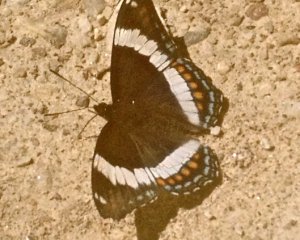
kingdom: Animalia
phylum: Arthropoda
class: Insecta
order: Lepidoptera
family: Nymphalidae
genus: Limenitis
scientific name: Limenitis arthemis
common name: Red-spotted Admiral
